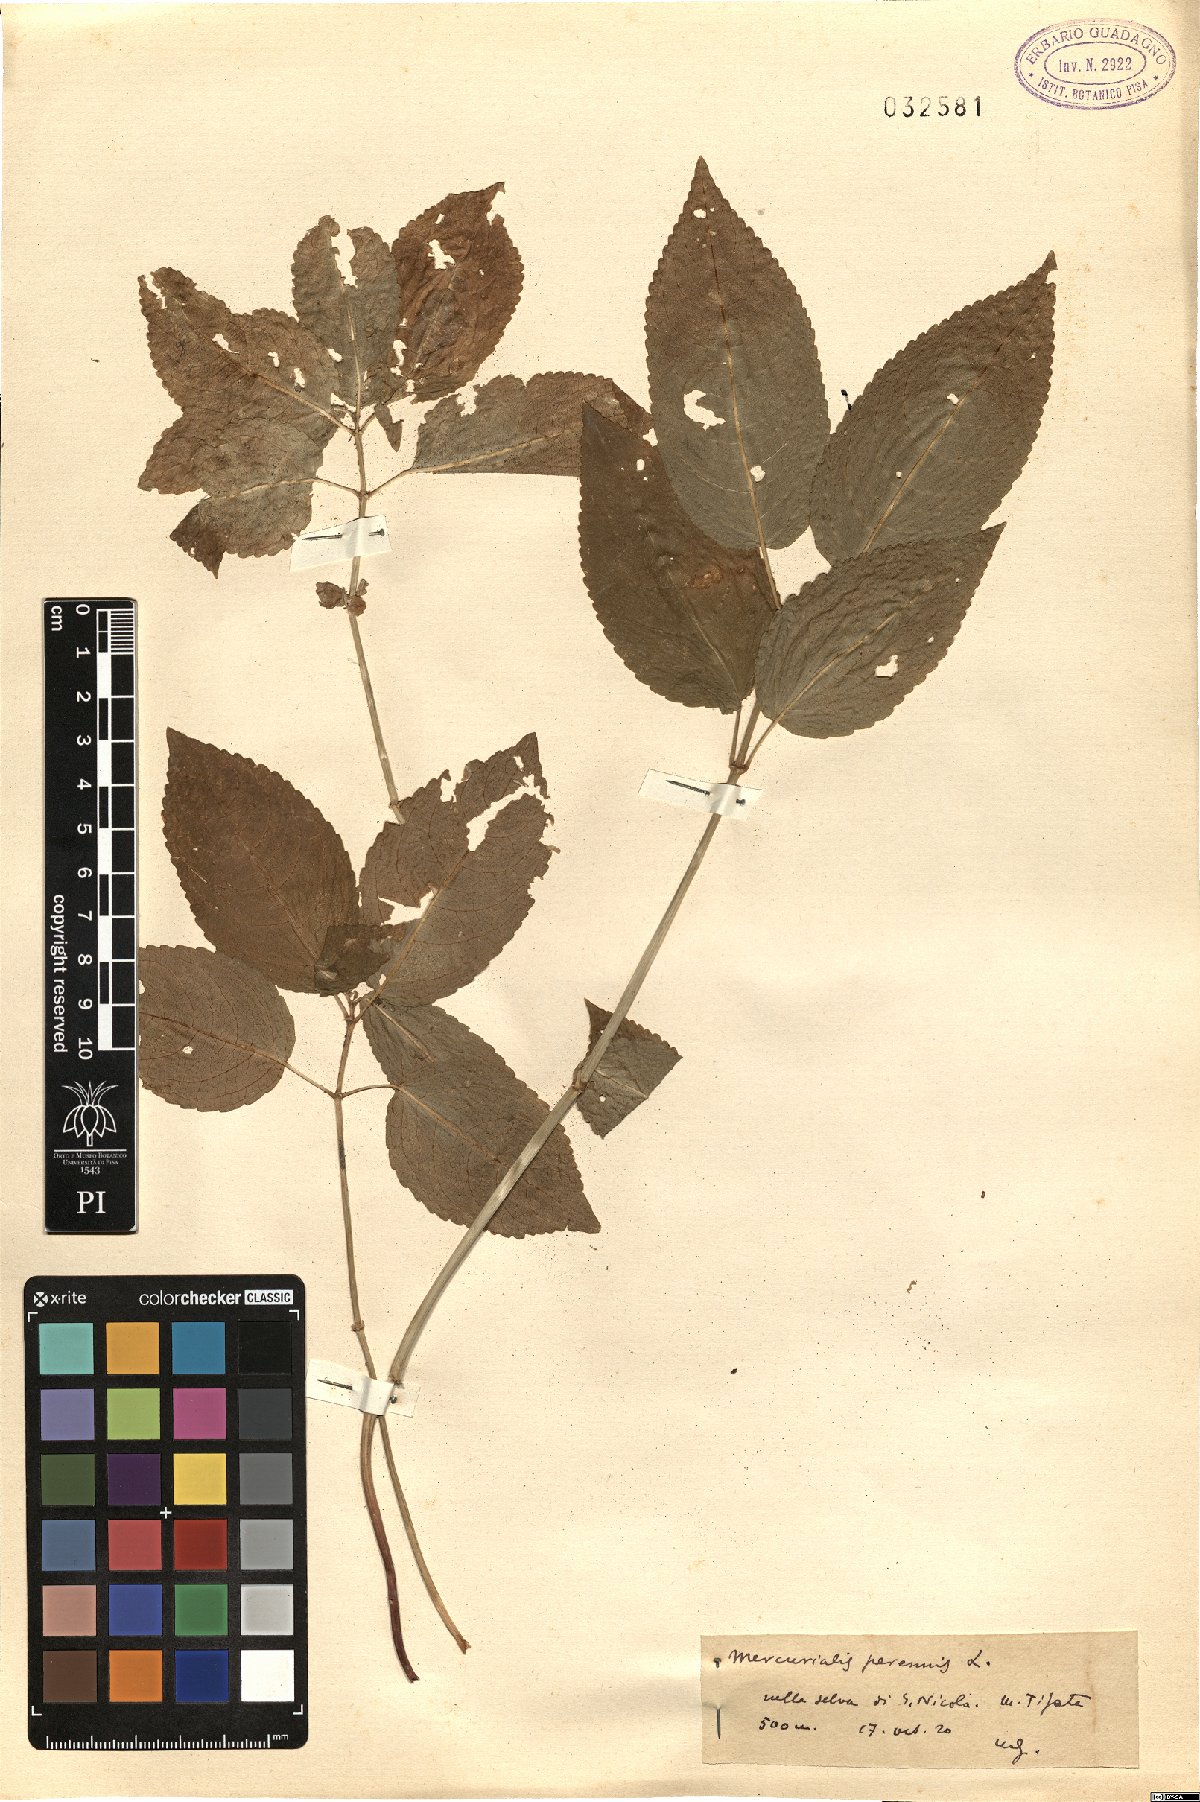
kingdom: Plantae
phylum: Tracheophyta
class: Magnoliopsida
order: Malpighiales
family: Euphorbiaceae
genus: Mercurialis
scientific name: Mercurialis perennis
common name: Dog mercury
